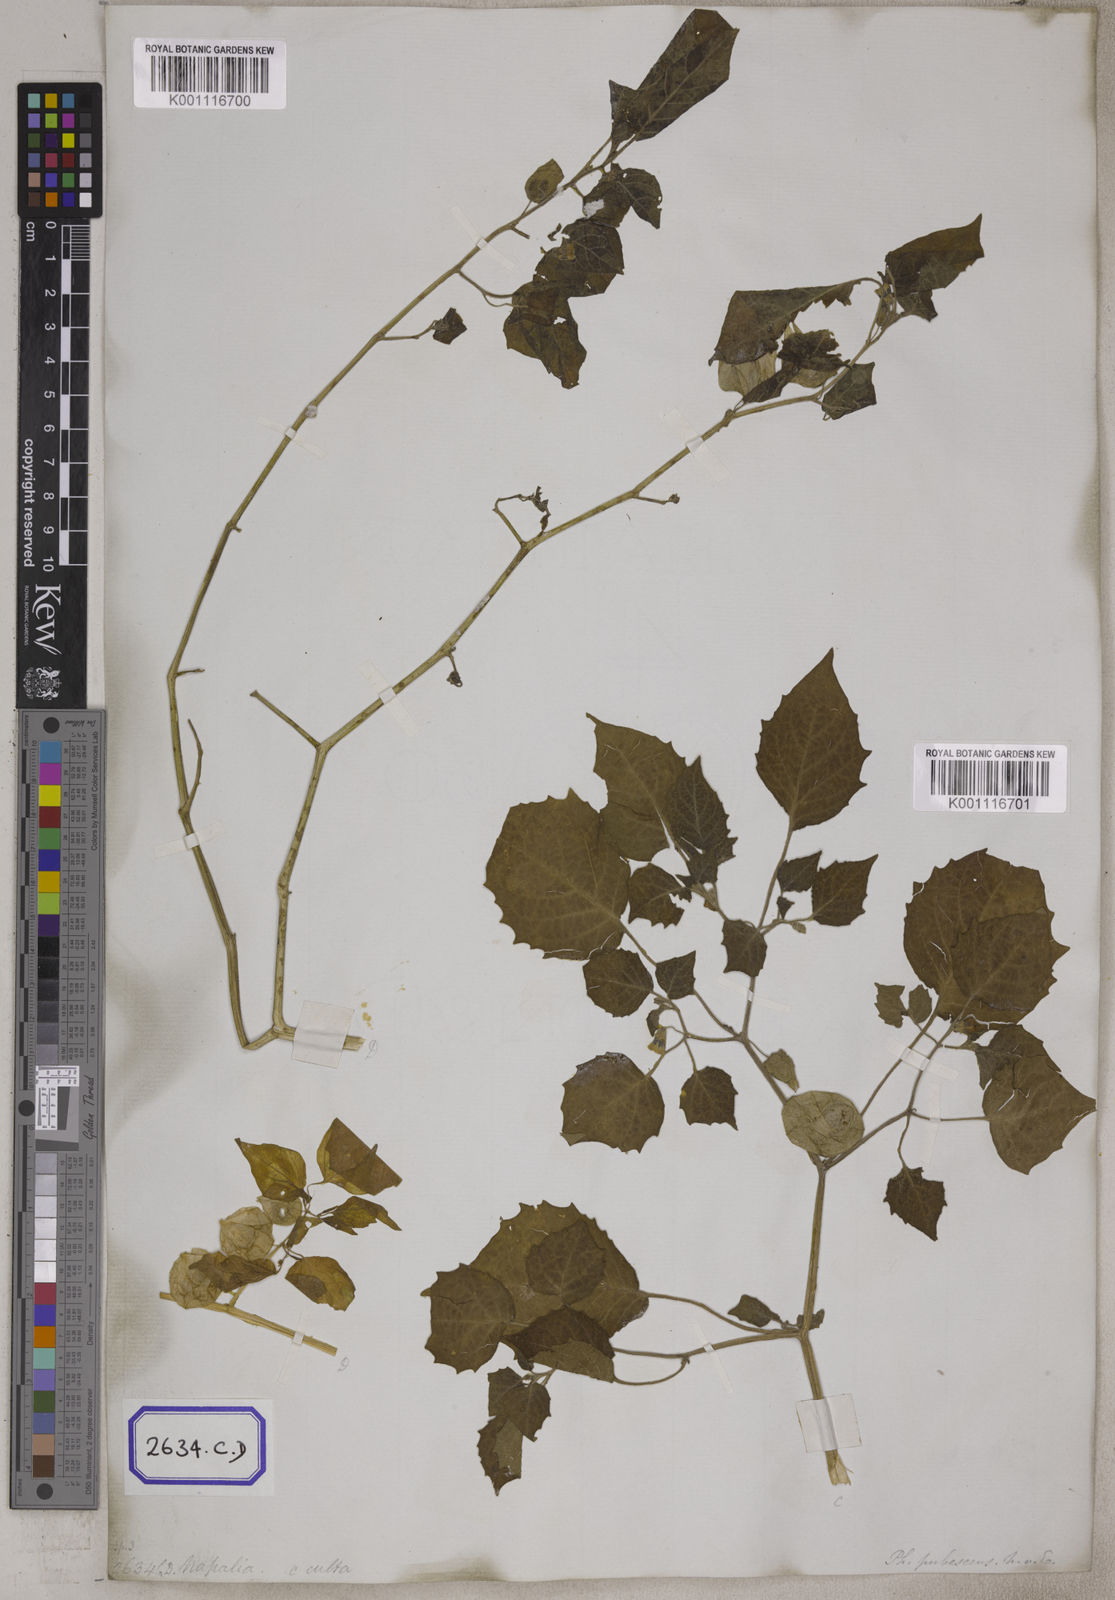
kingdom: Plantae
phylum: Tracheophyta
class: Magnoliopsida
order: Solanales
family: Solanaceae
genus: Physalis
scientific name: Physalis peruviana
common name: Cape-gooseberry
